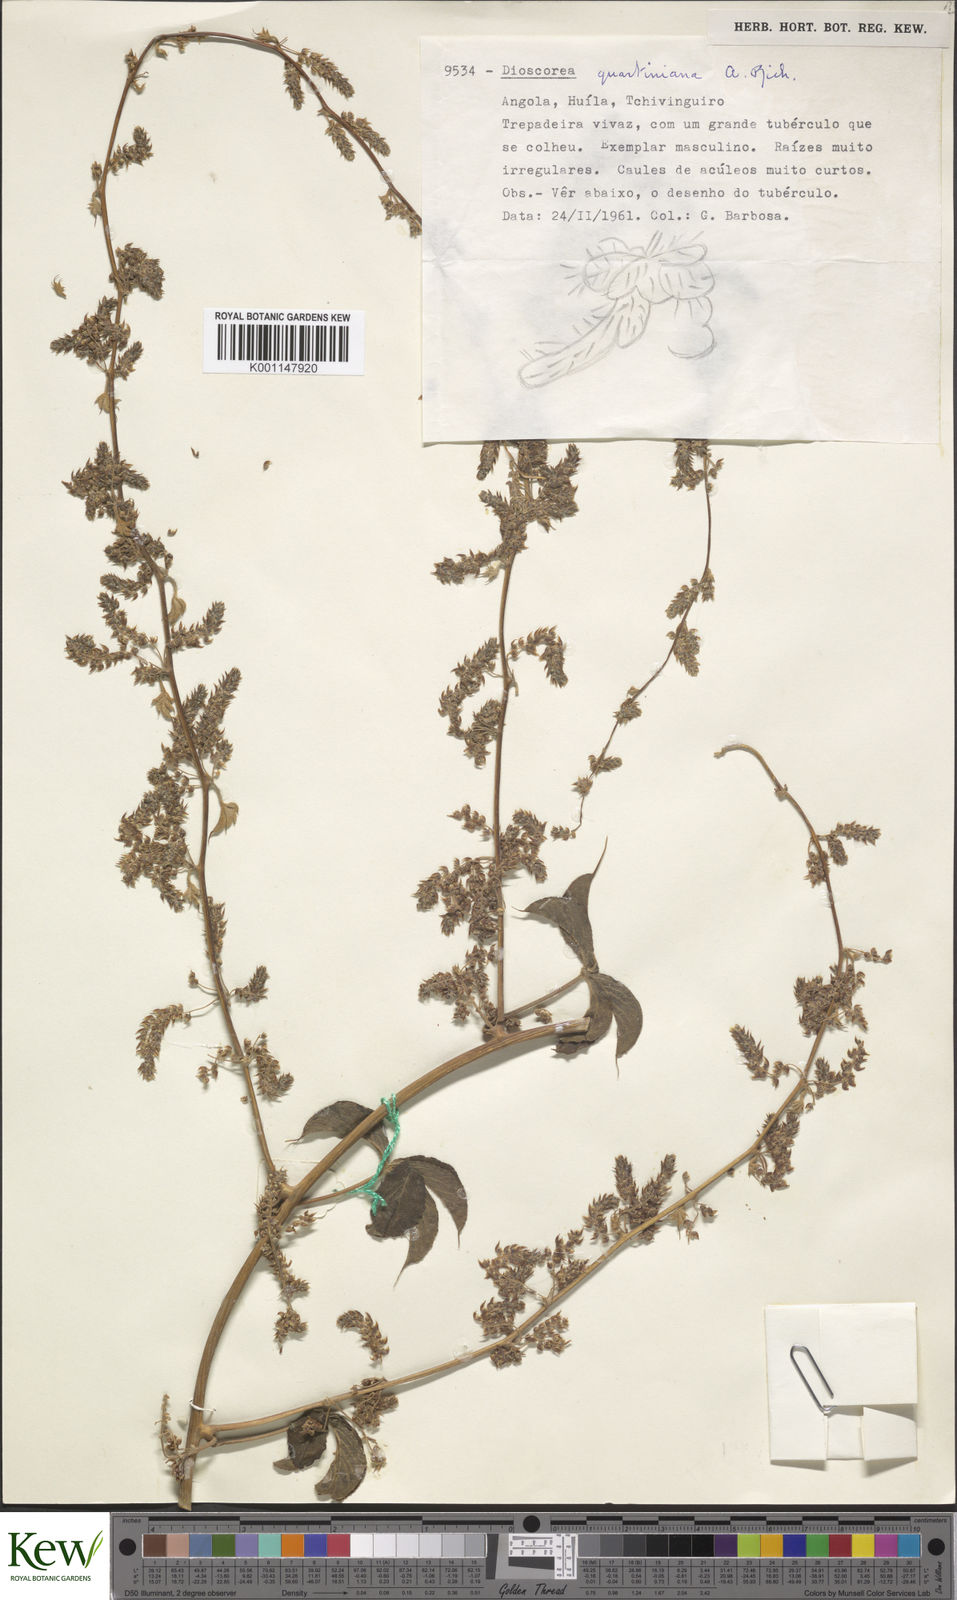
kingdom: Plantae
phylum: Tracheophyta
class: Liliopsida
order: Dioscoreales
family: Dioscoreaceae
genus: Dioscorea
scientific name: Dioscorea quartiniana
